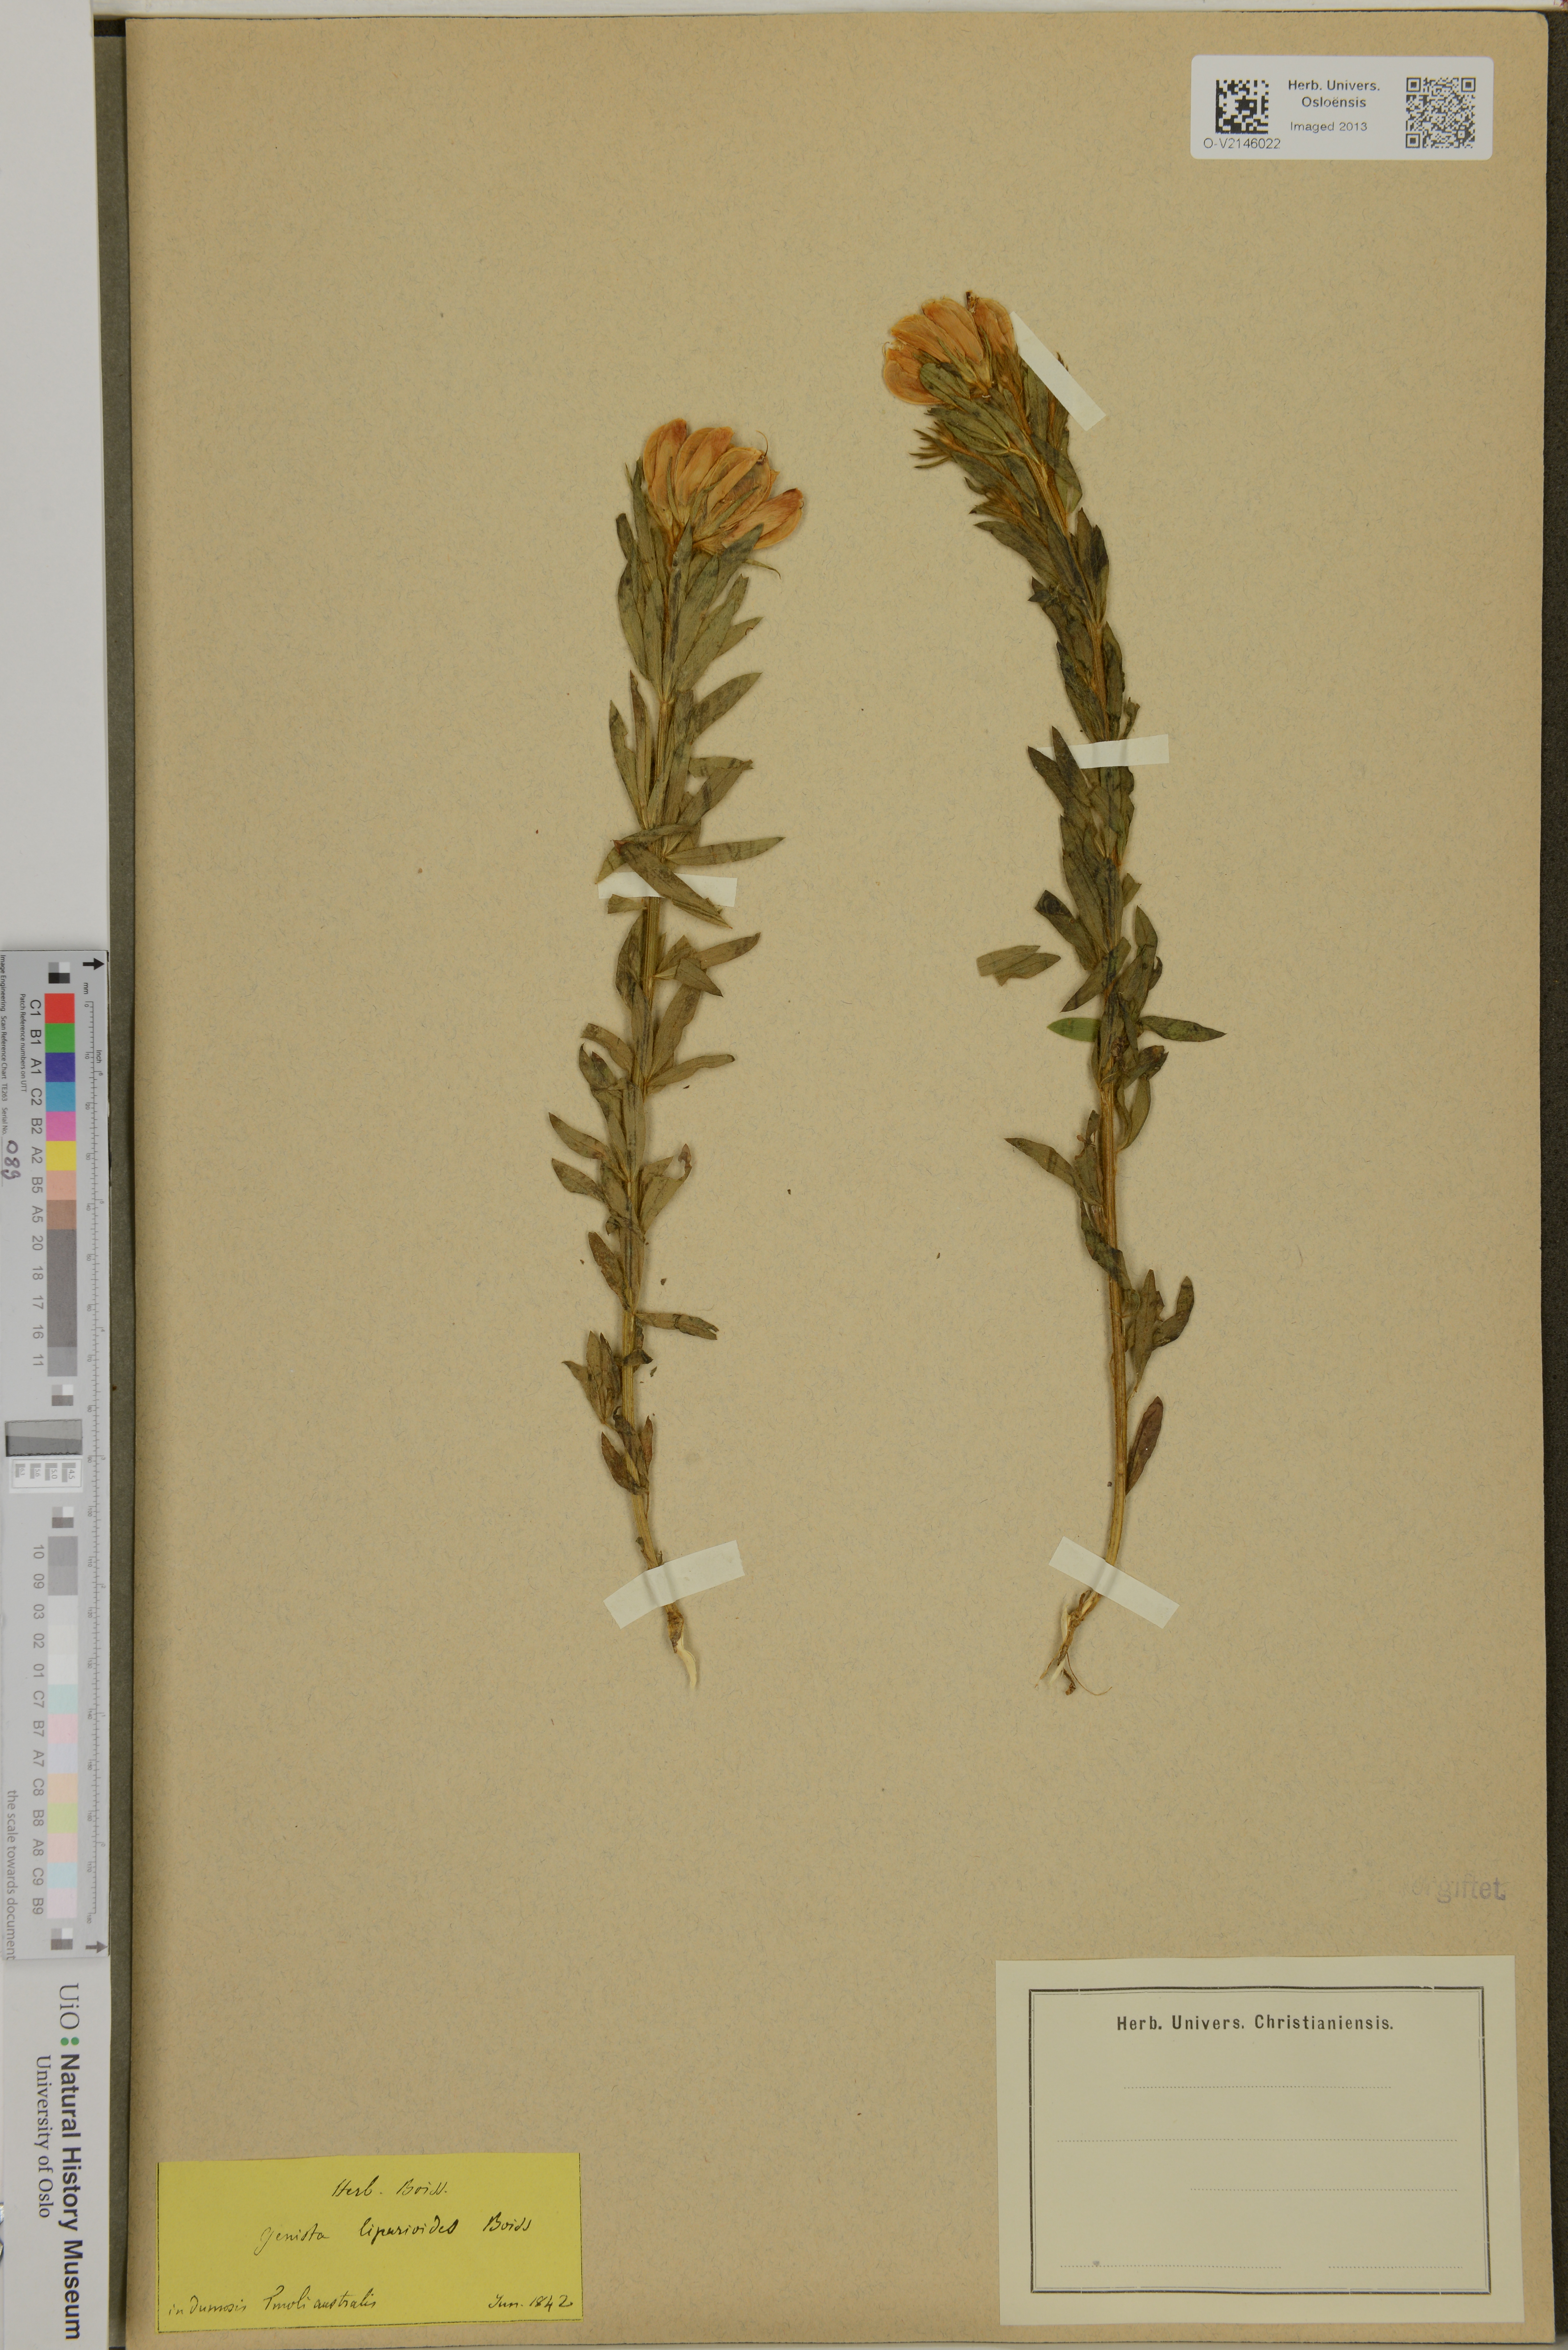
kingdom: Plantae
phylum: Tracheophyta
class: Magnoliopsida
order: Fabales
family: Fabaceae
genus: Cytisus
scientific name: Cytisus orientalis
